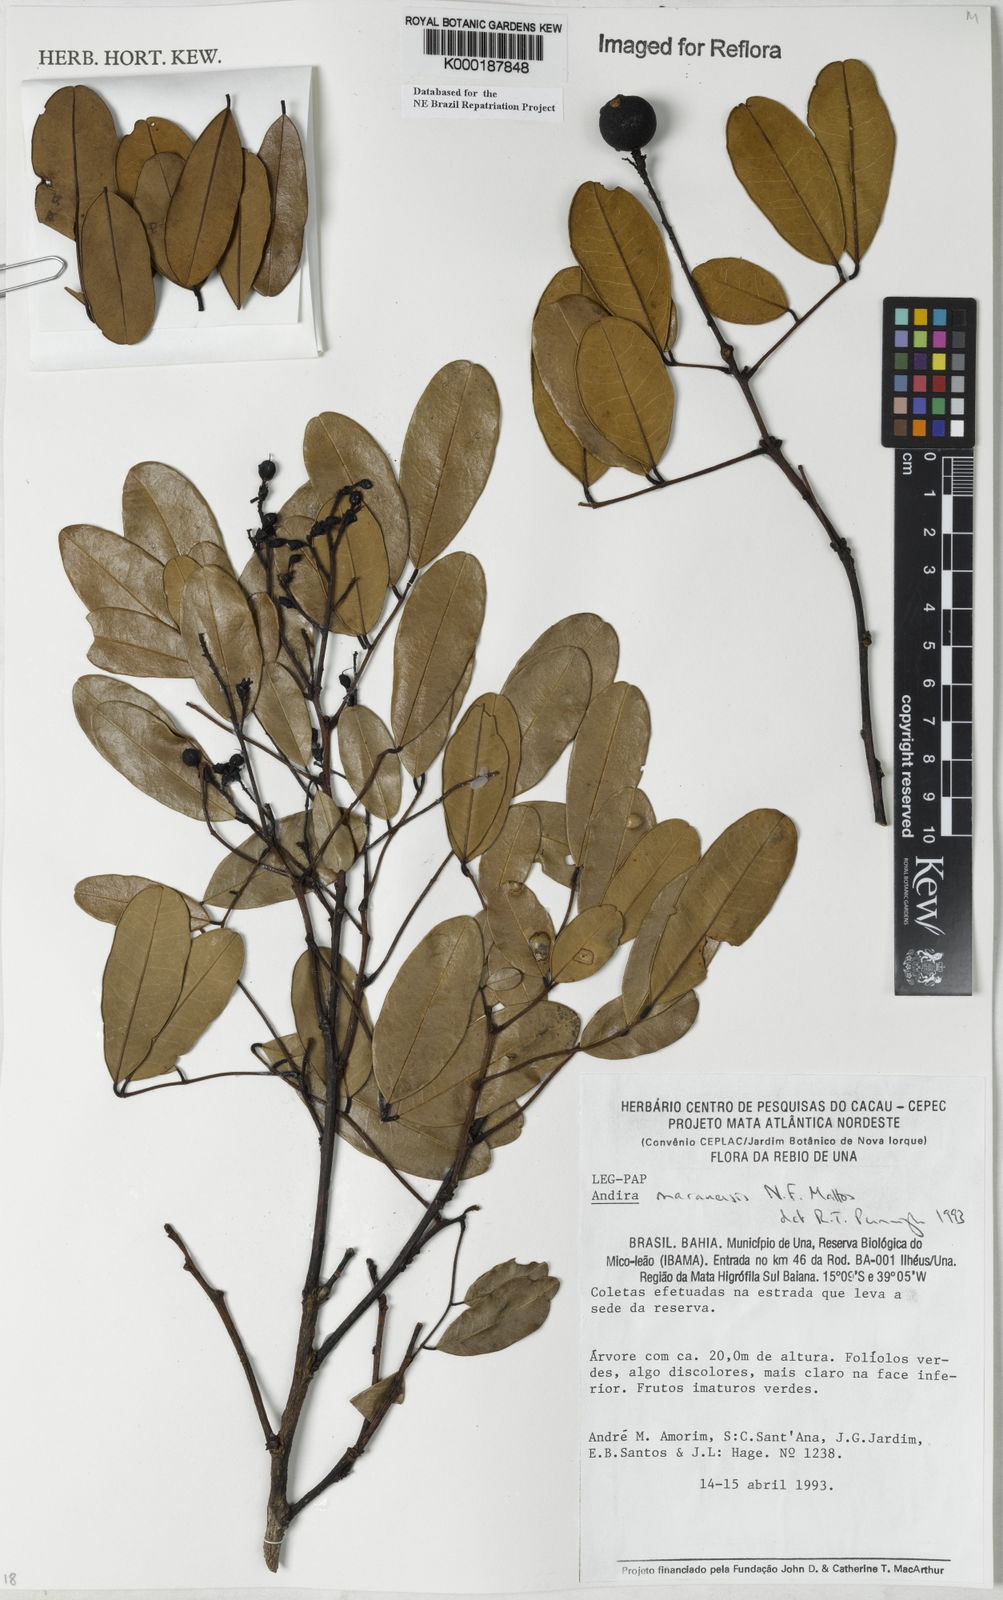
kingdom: Plantae
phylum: Tracheophyta
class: Magnoliopsida
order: Fabales
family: Fabaceae
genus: Andira
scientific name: Andira marauensis
